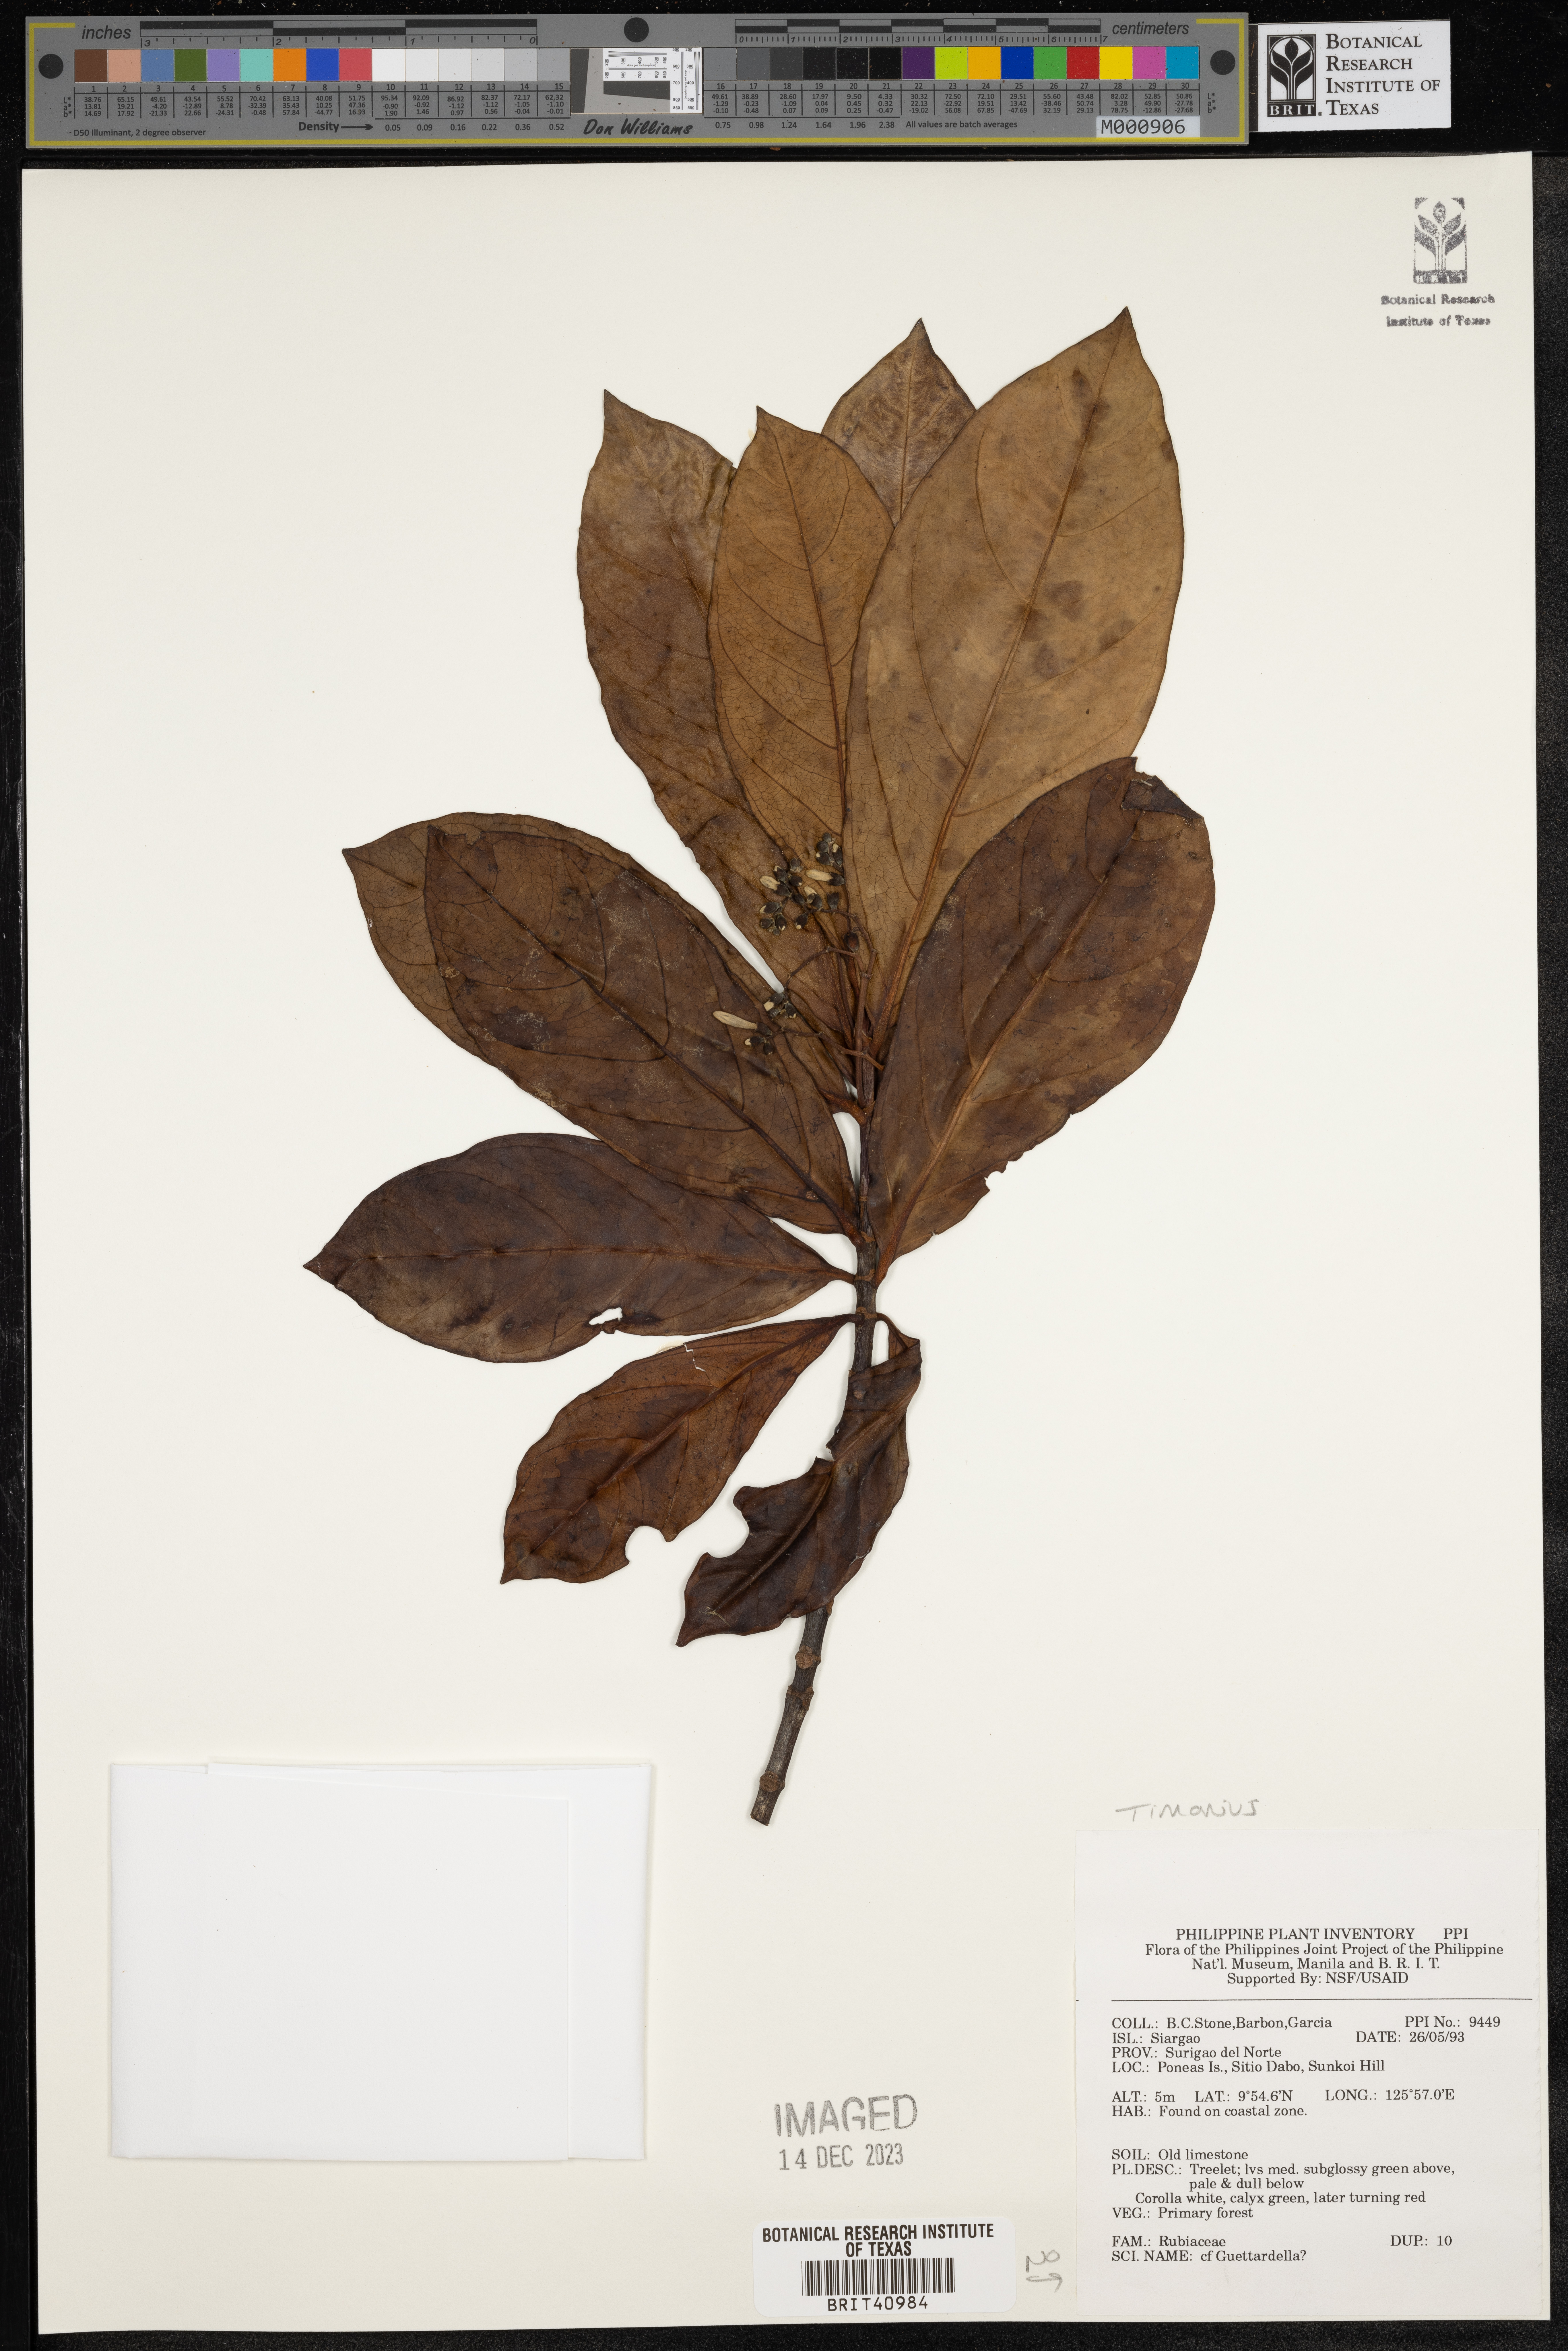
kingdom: Plantae
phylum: Tracheophyta
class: Magnoliopsida
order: Gentianales
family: Rubiaceae
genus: Timonius
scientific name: Timonius
